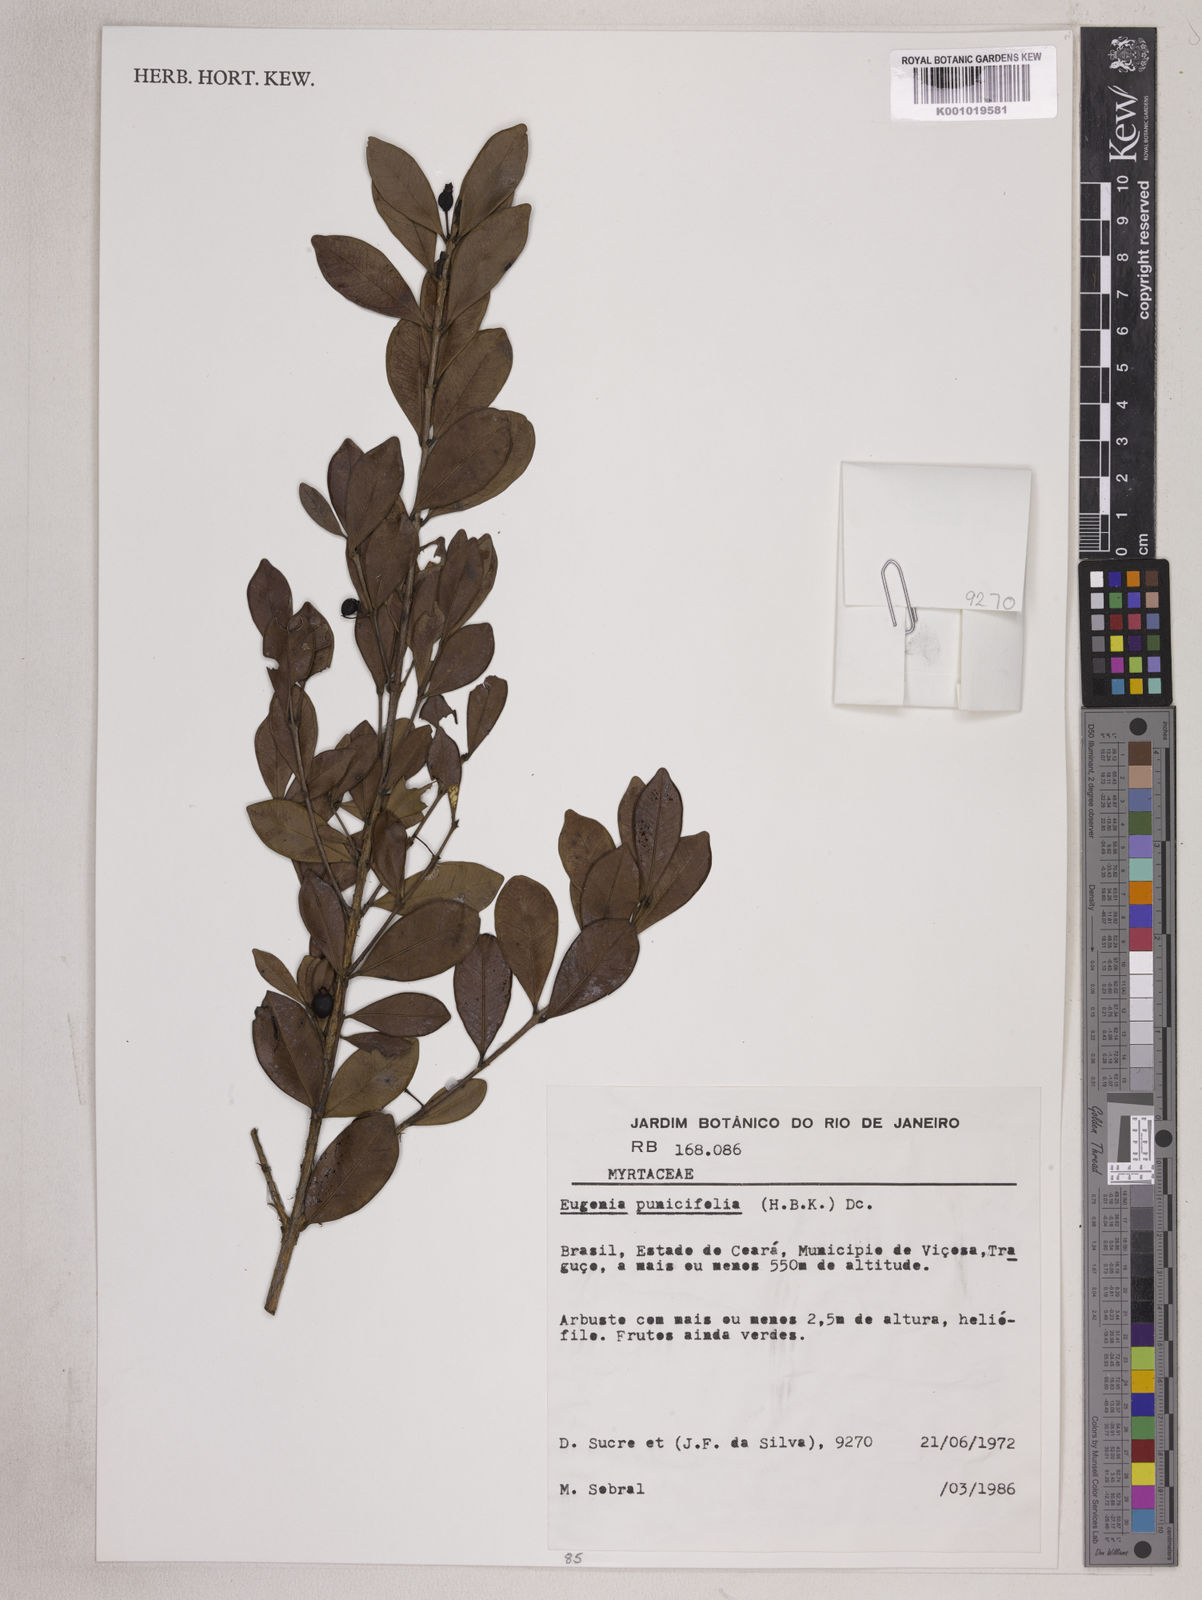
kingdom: Plantae
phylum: Tracheophyta
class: Magnoliopsida
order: Myrtales
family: Myrtaceae
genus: Eugenia
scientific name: Eugenia punicifolia
